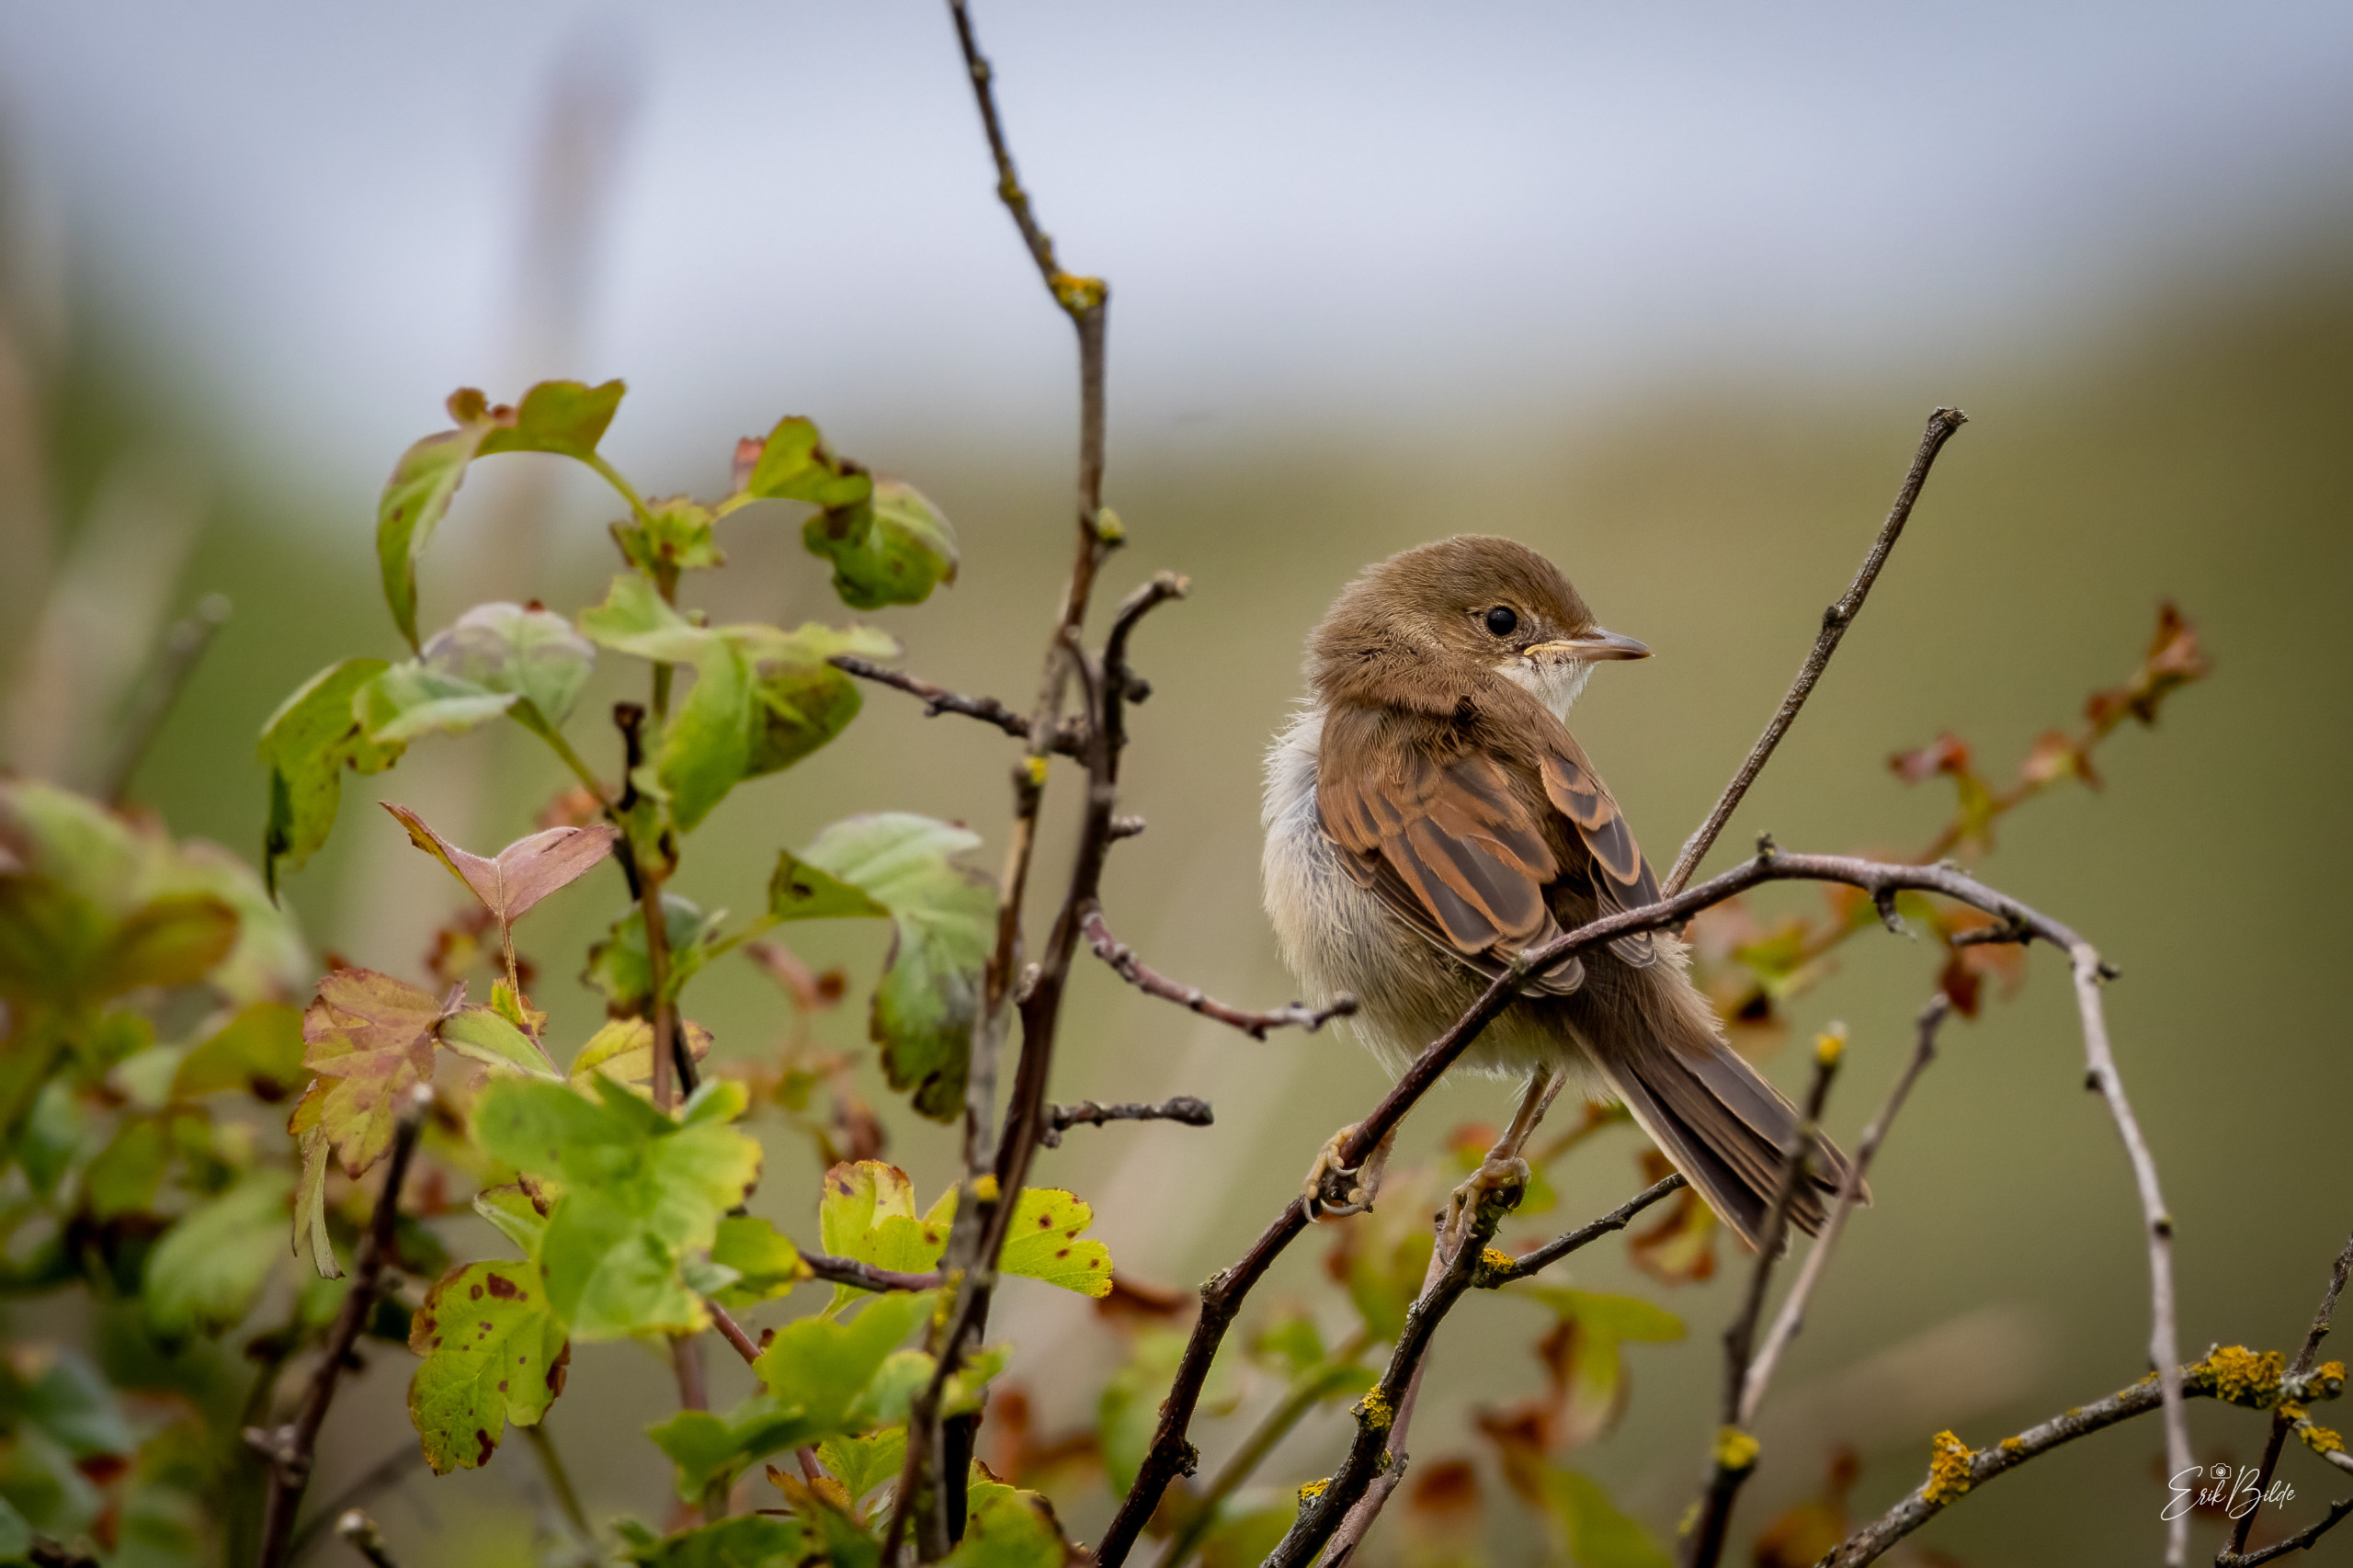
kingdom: Animalia
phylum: Chordata
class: Aves
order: Passeriformes
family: Sylviidae
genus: Sylvia
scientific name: Sylvia communis
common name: Tornsanger
